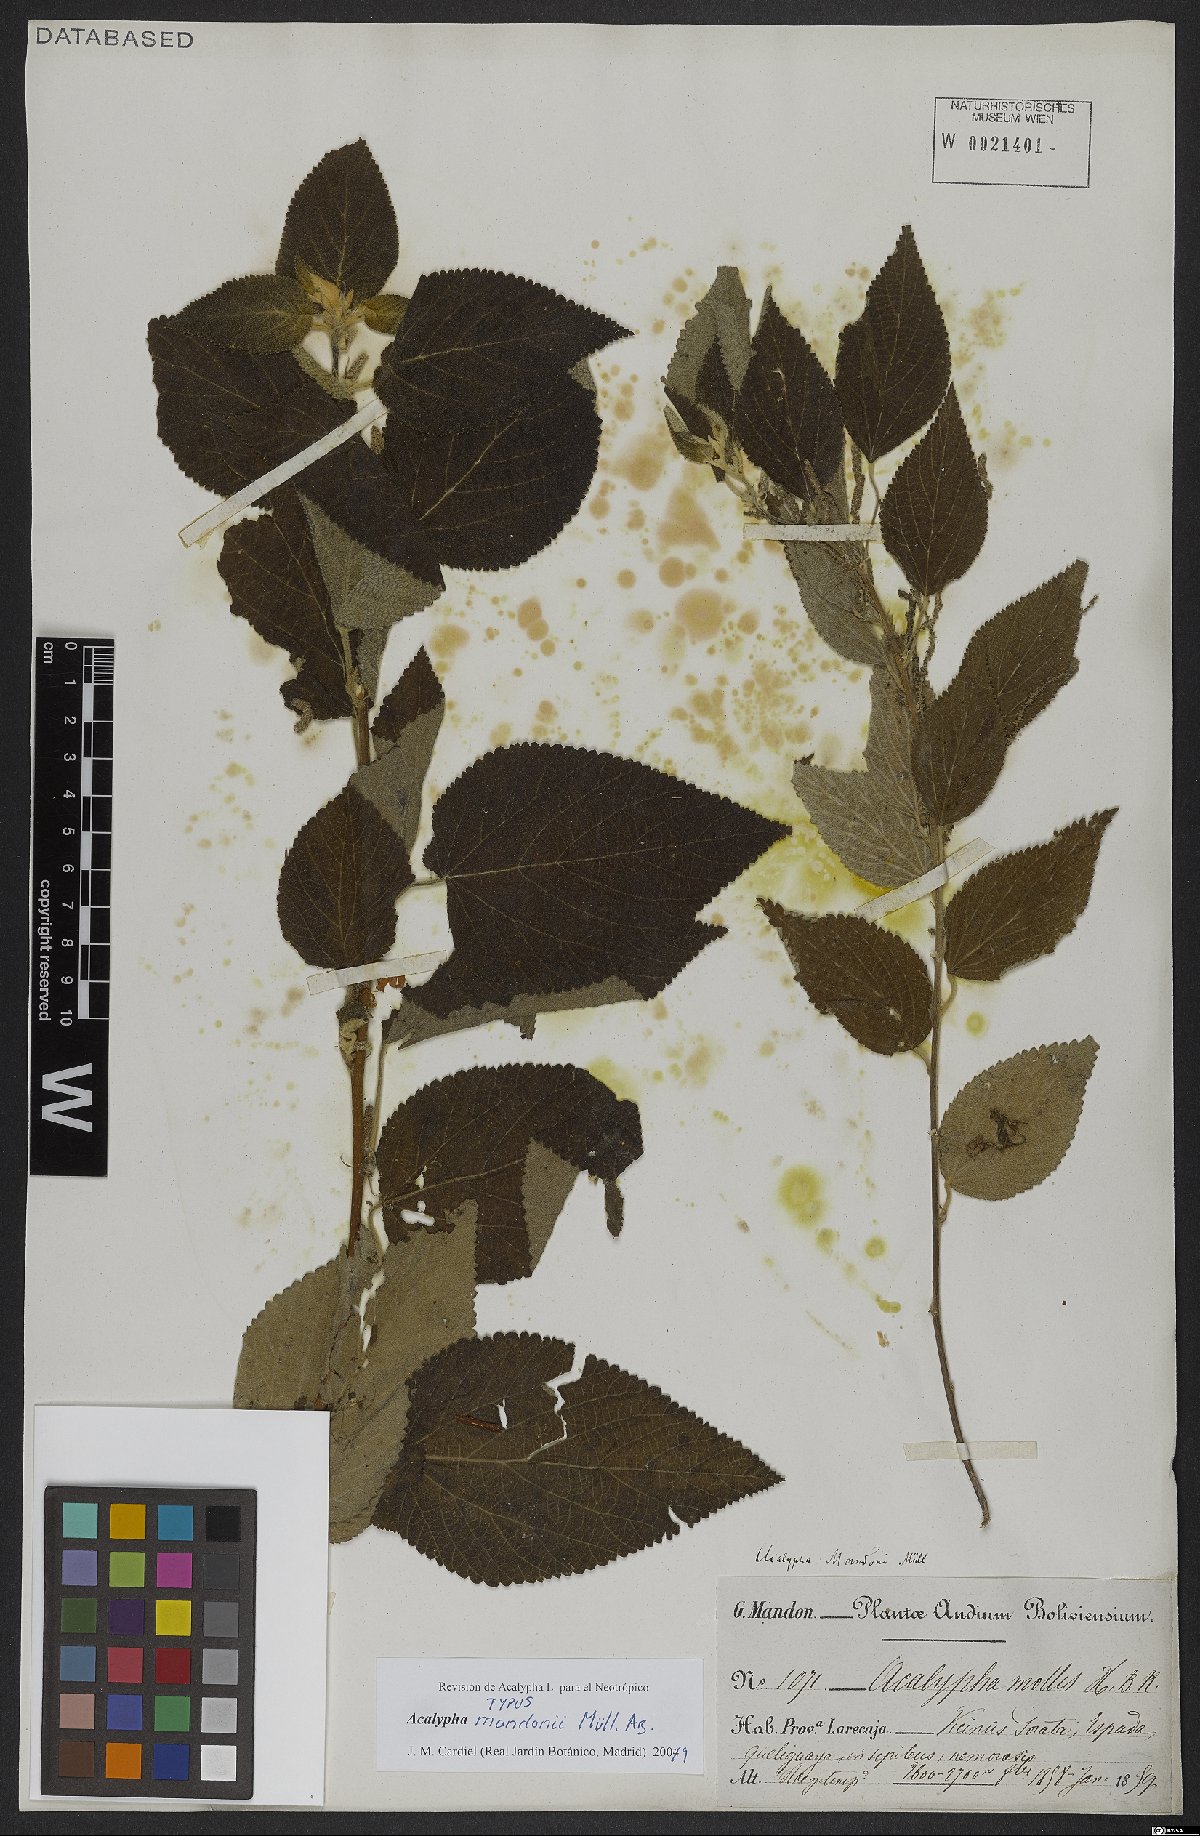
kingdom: Plantae
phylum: Tracheophyta
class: Magnoliopsida
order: Malpighiales
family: Euphorbiaceae
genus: Acalypha
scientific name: Acalypha reflexa
